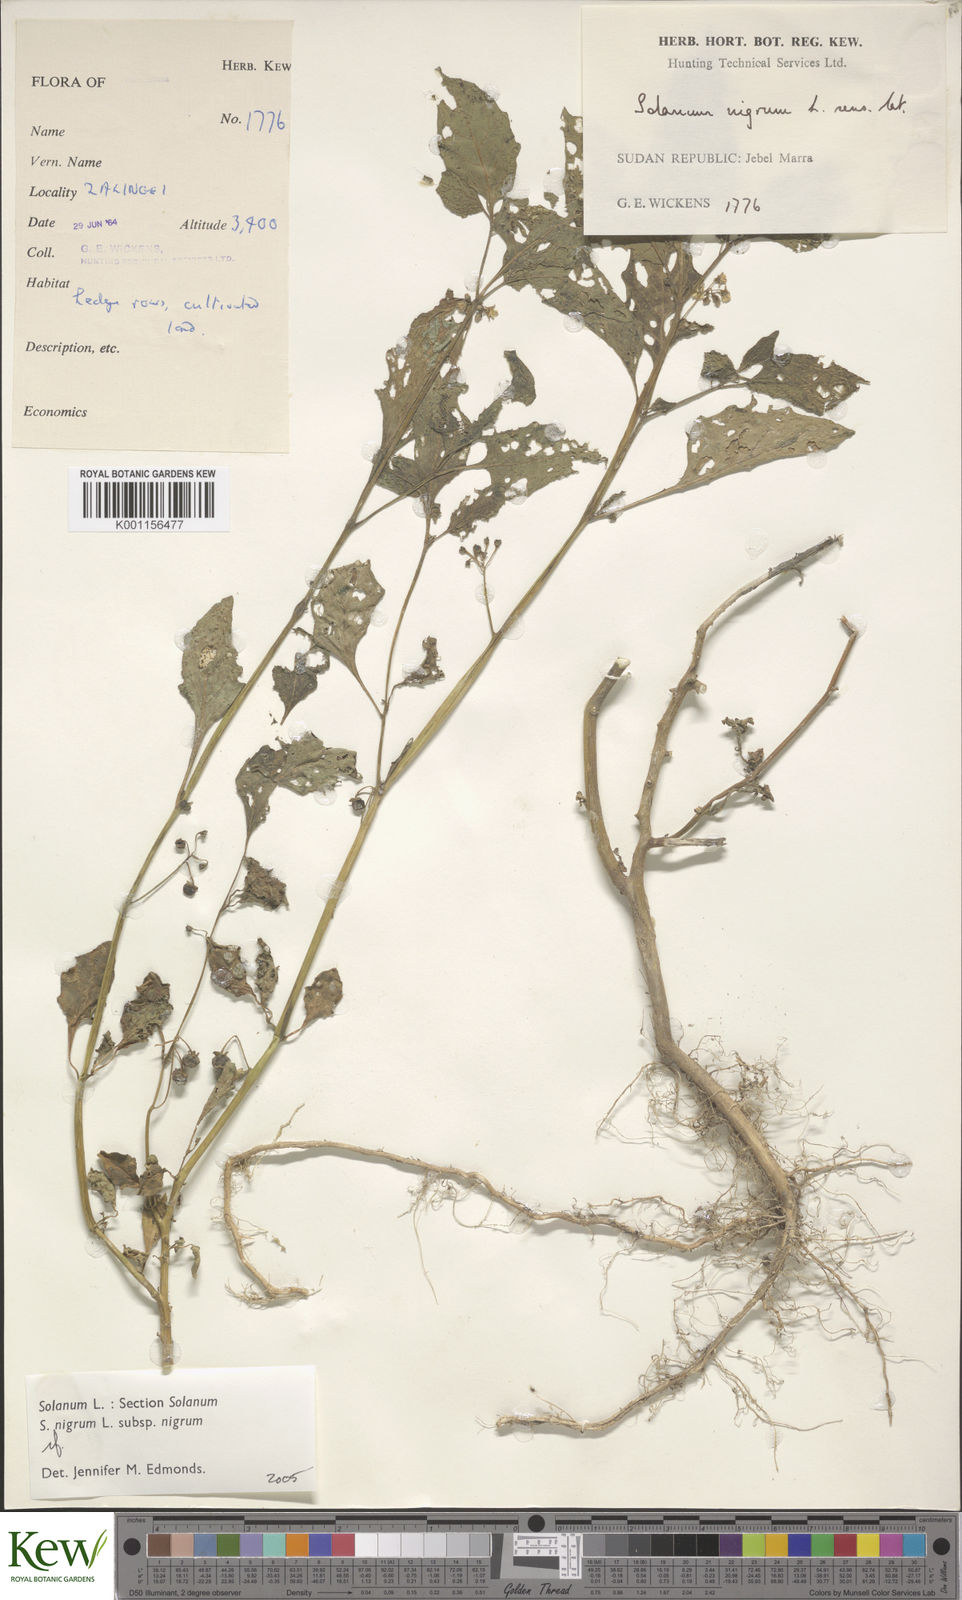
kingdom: Plantae
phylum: Tracheophyta
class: Magnoliopsida
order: Solanales
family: Solanaceae
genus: Solanum
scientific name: Solanum tarderemotum
